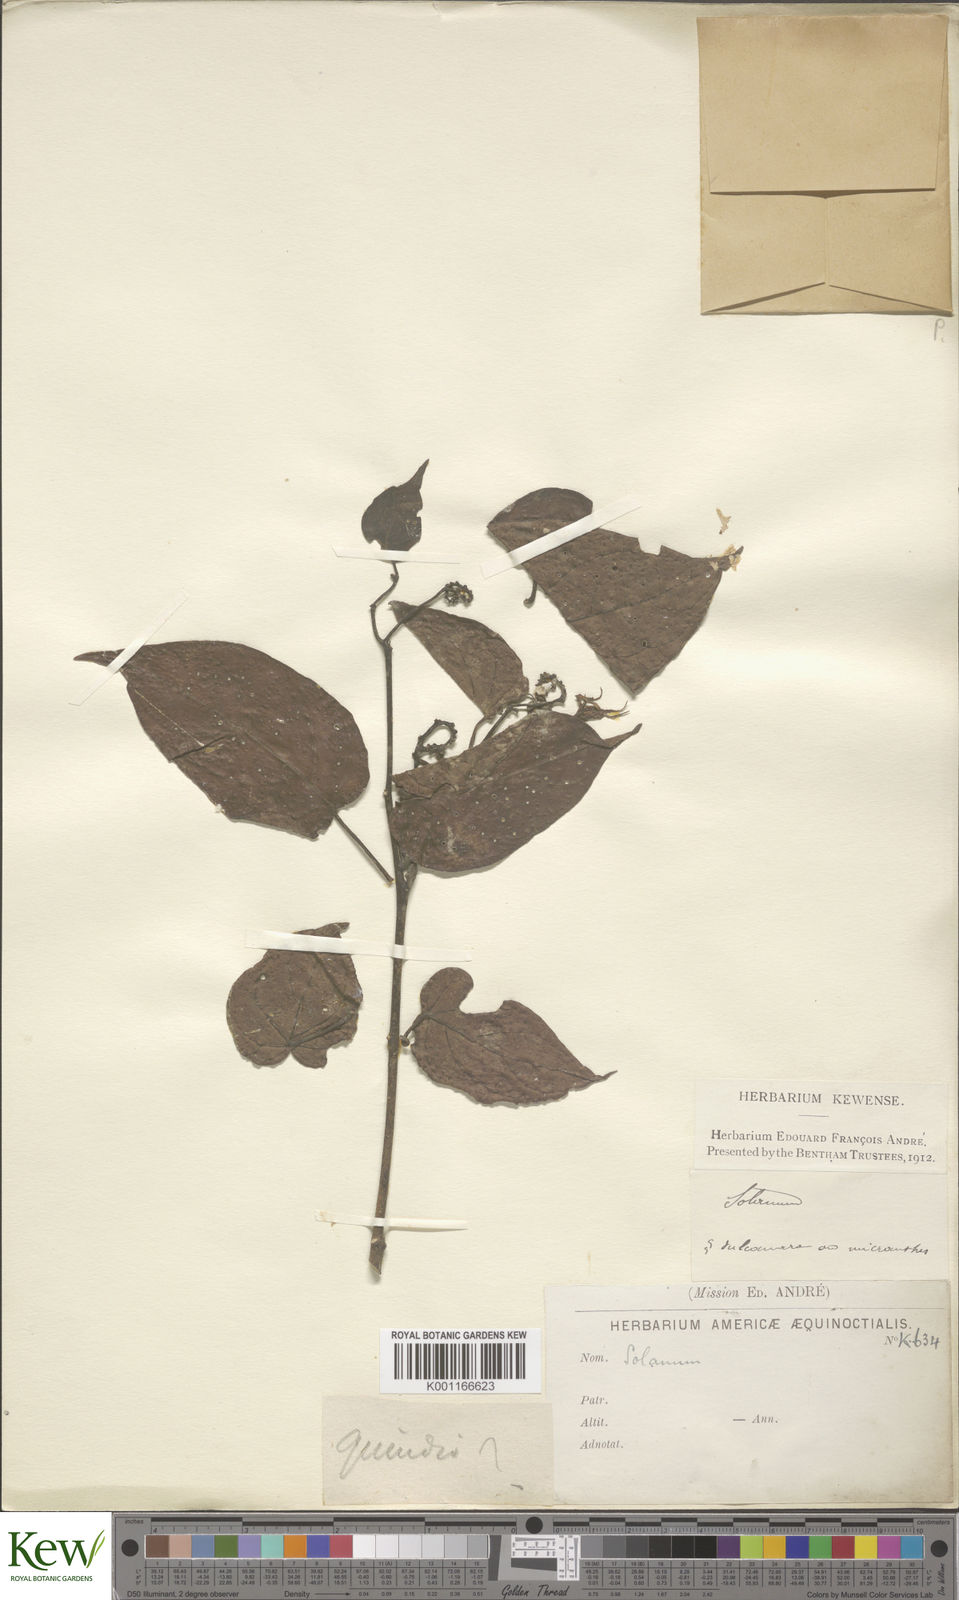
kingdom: Plantae
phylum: Tracheophyta
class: Magnoliopsida
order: Solanales
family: Solanaceae
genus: Solanum
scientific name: Solanum
